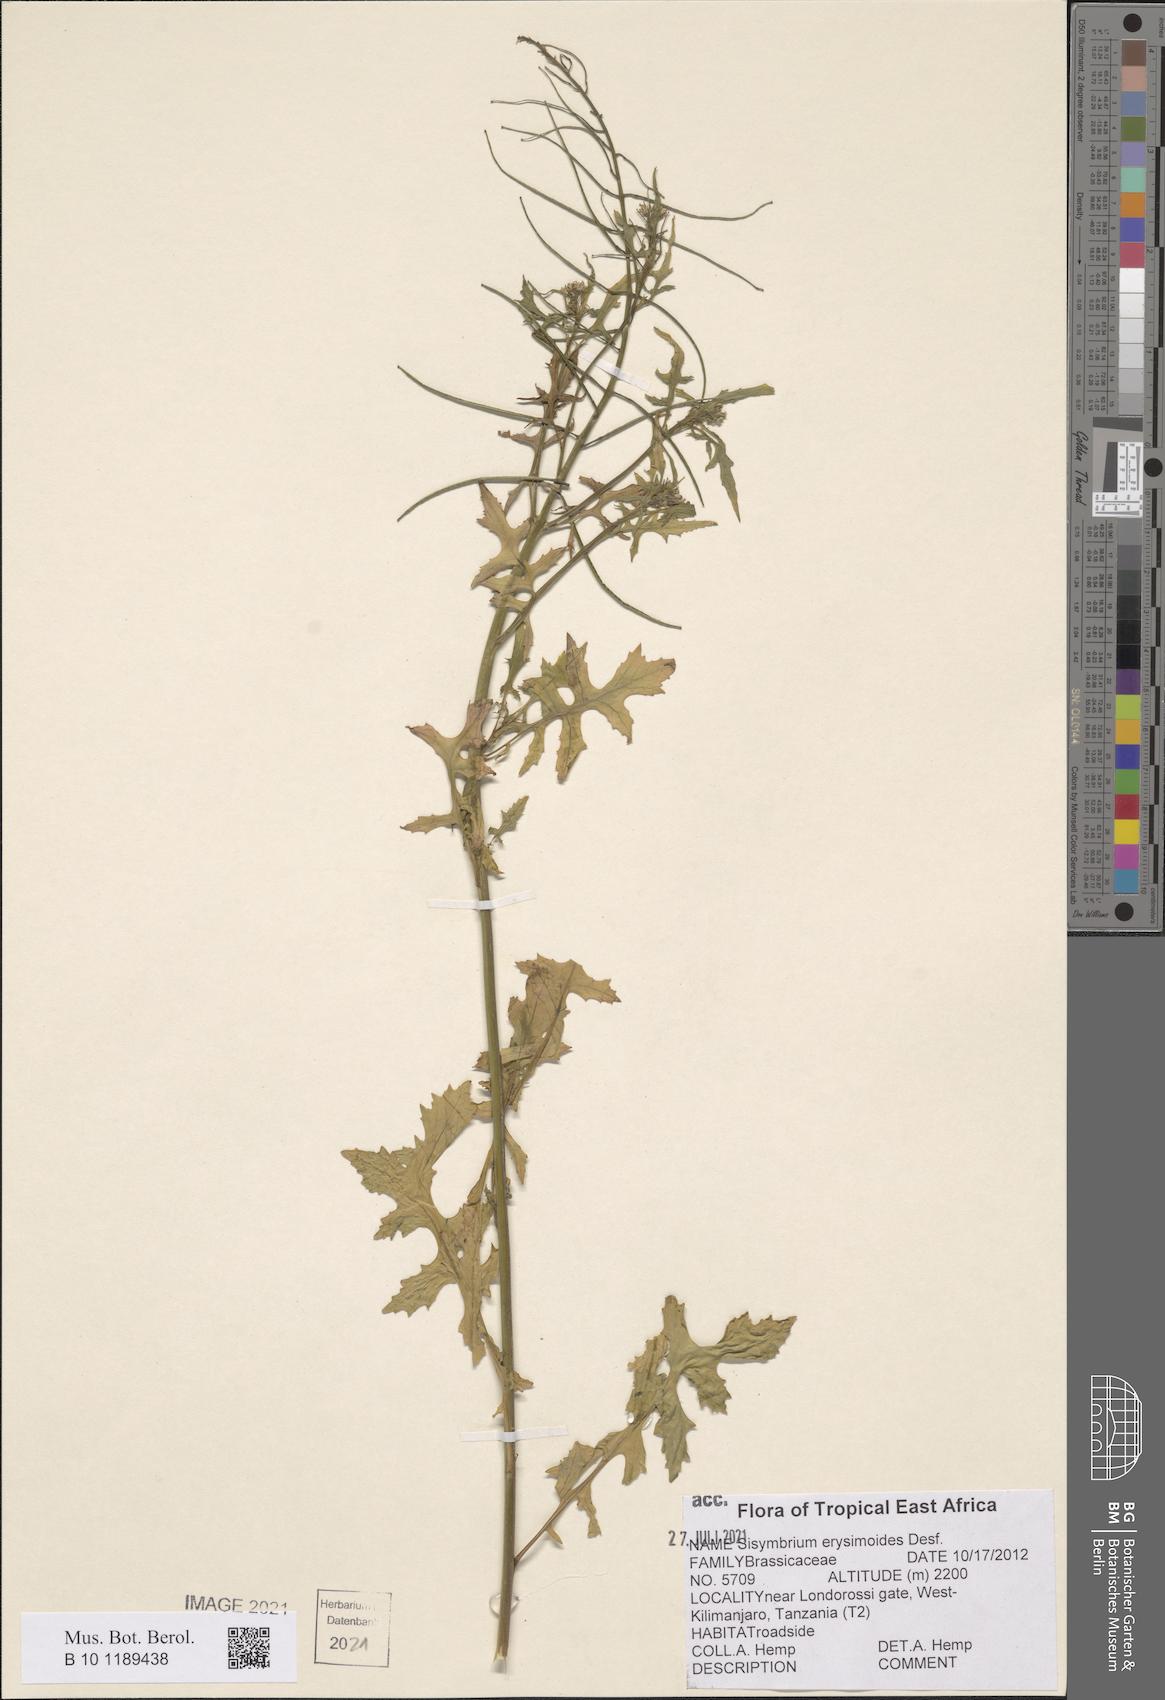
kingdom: Plantae
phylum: Tracheophyta
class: Magnoliopsida
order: Brassicales
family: Brassicaceae
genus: Sisymbrium
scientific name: Sisymbrium erysimoides
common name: French rocket
